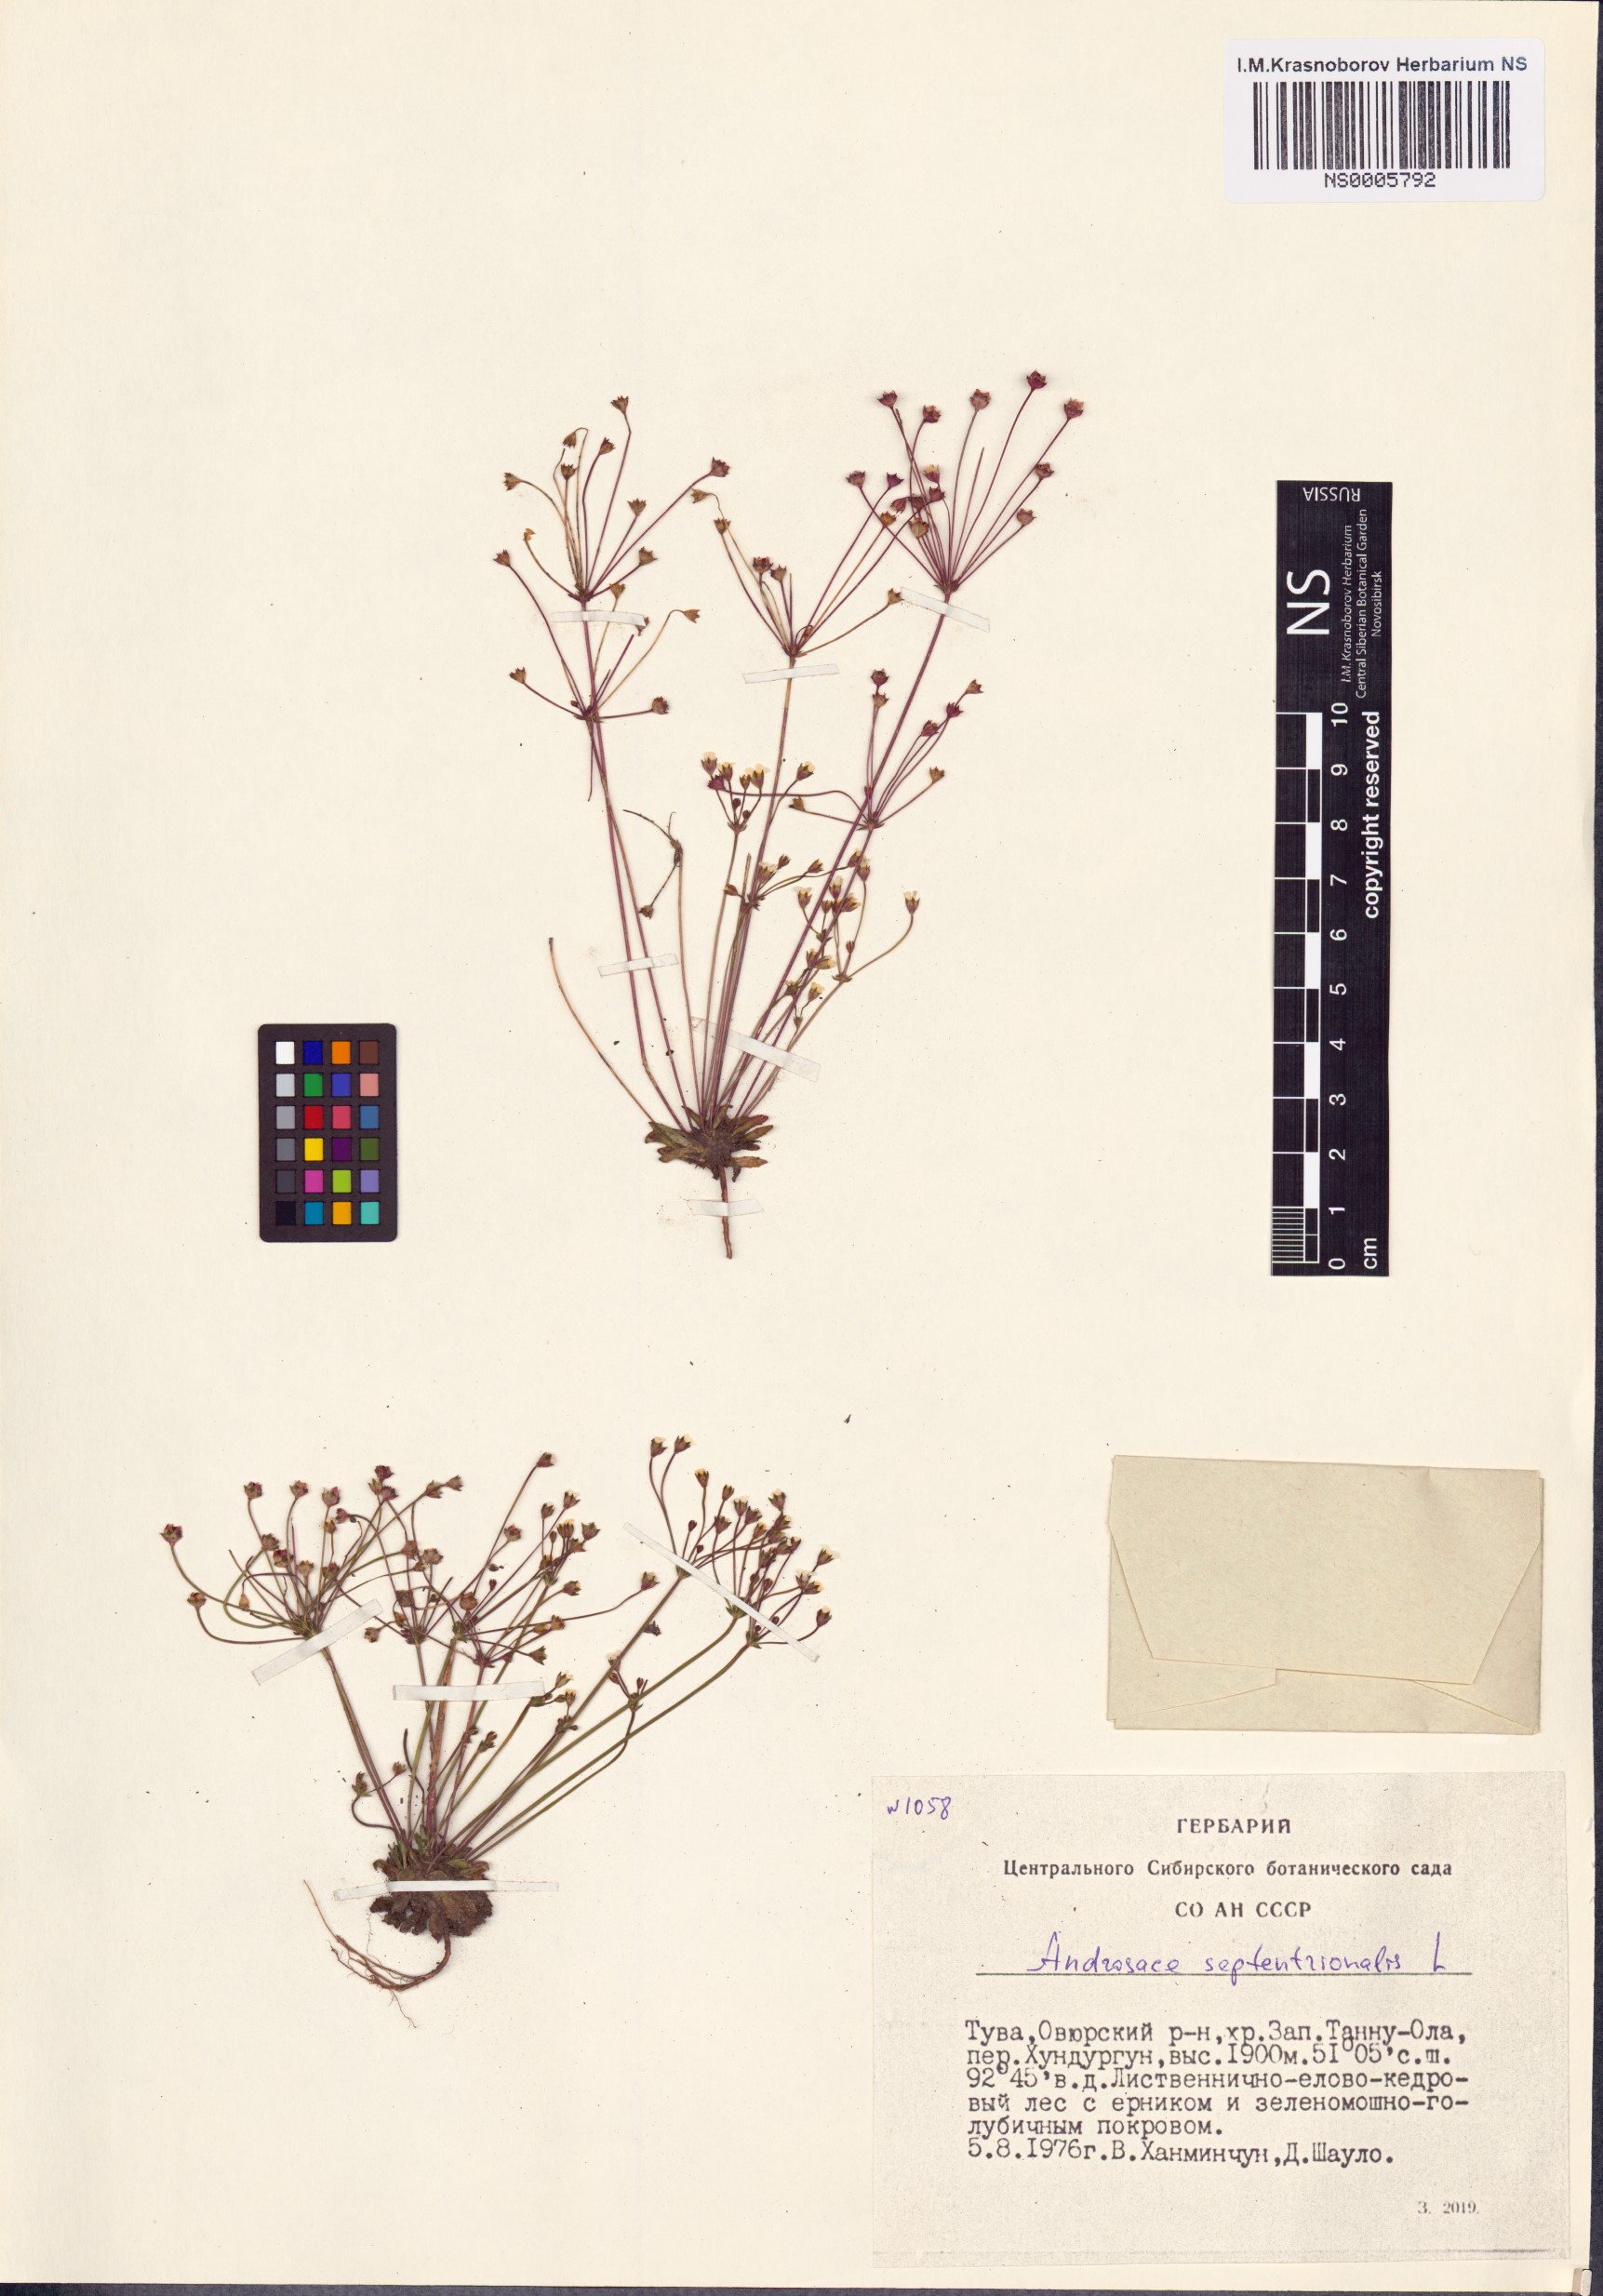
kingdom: Plantae
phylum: Tracheophyta
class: Magnoliopsida
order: Ericales
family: Primulaceae
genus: Androsace
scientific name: Androsace septentrionalis
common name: Hairy northern fairy-candelabra
